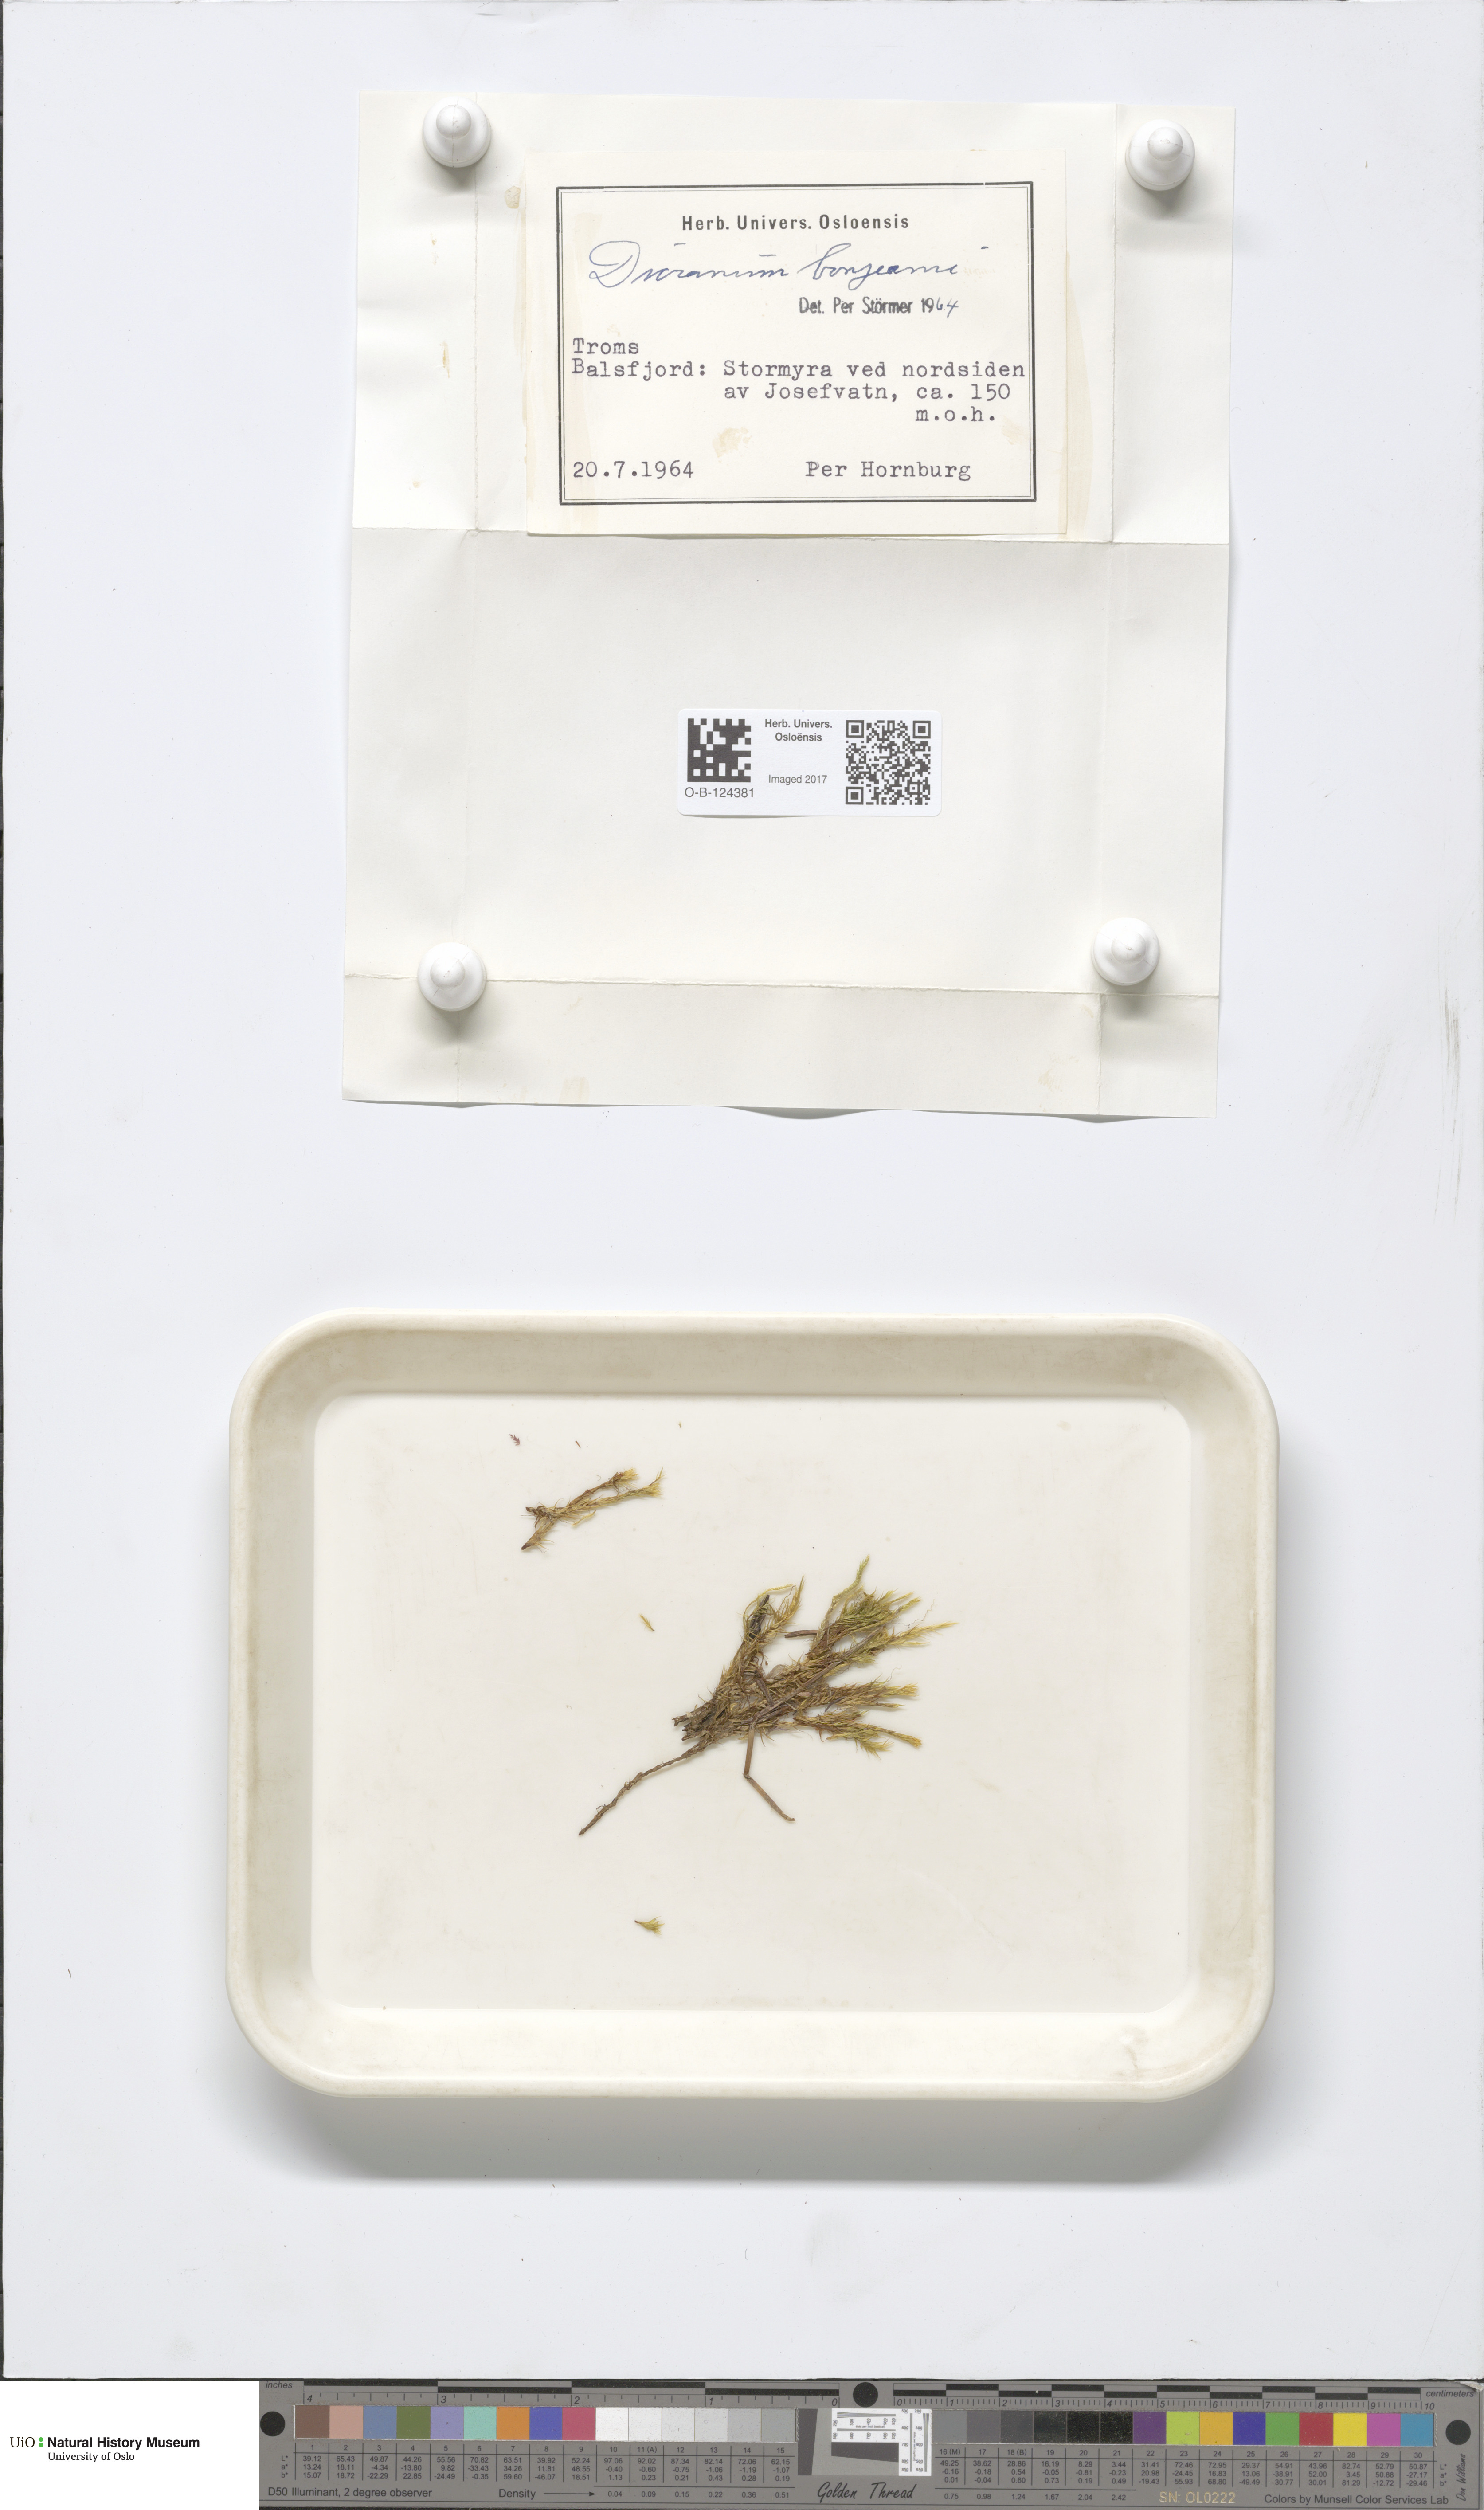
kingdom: Plantae
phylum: Bryophyta
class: Bryopsida
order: Dicranales
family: Dicranaceae
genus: Dicranum
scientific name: Dicranum bonjeanii
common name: Bonjean's broom moss
